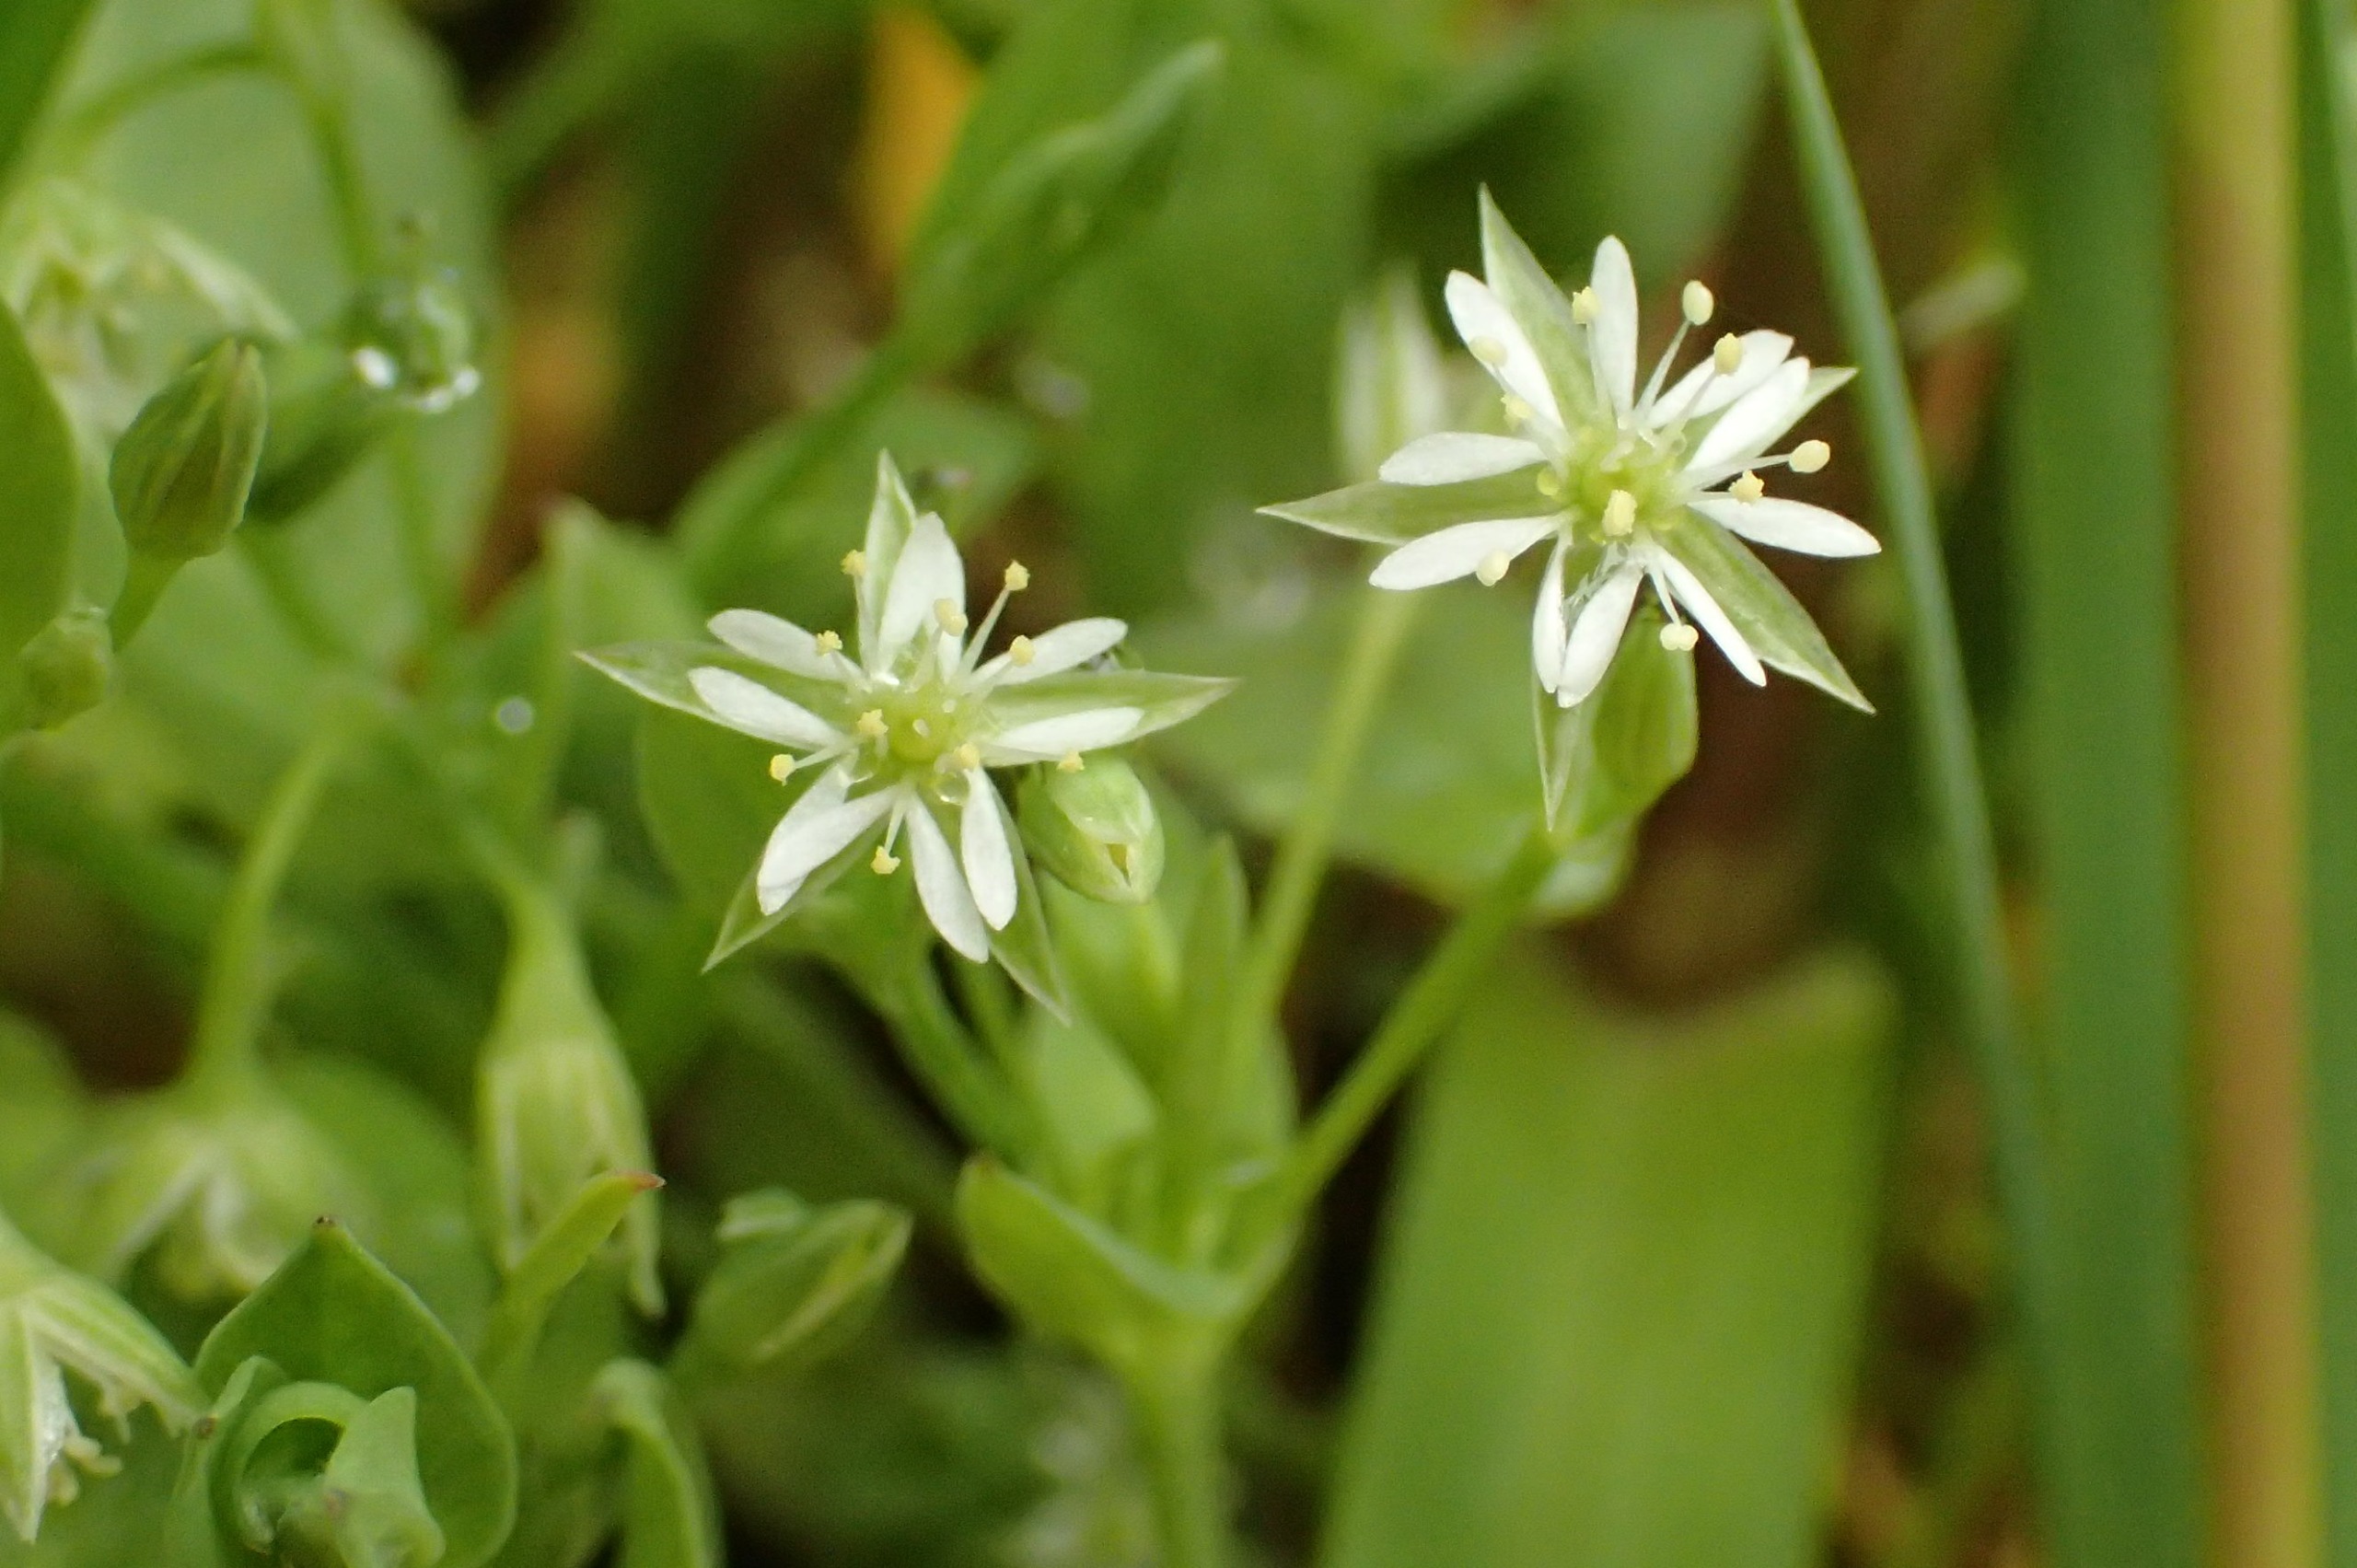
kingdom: Plantae
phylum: Tracheophyta
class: Magnoliopsida
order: Caryophyllales
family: Caryophyllaceae
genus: Stellaria
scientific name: Stellaria alsine
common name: Sump-fladstjerne
